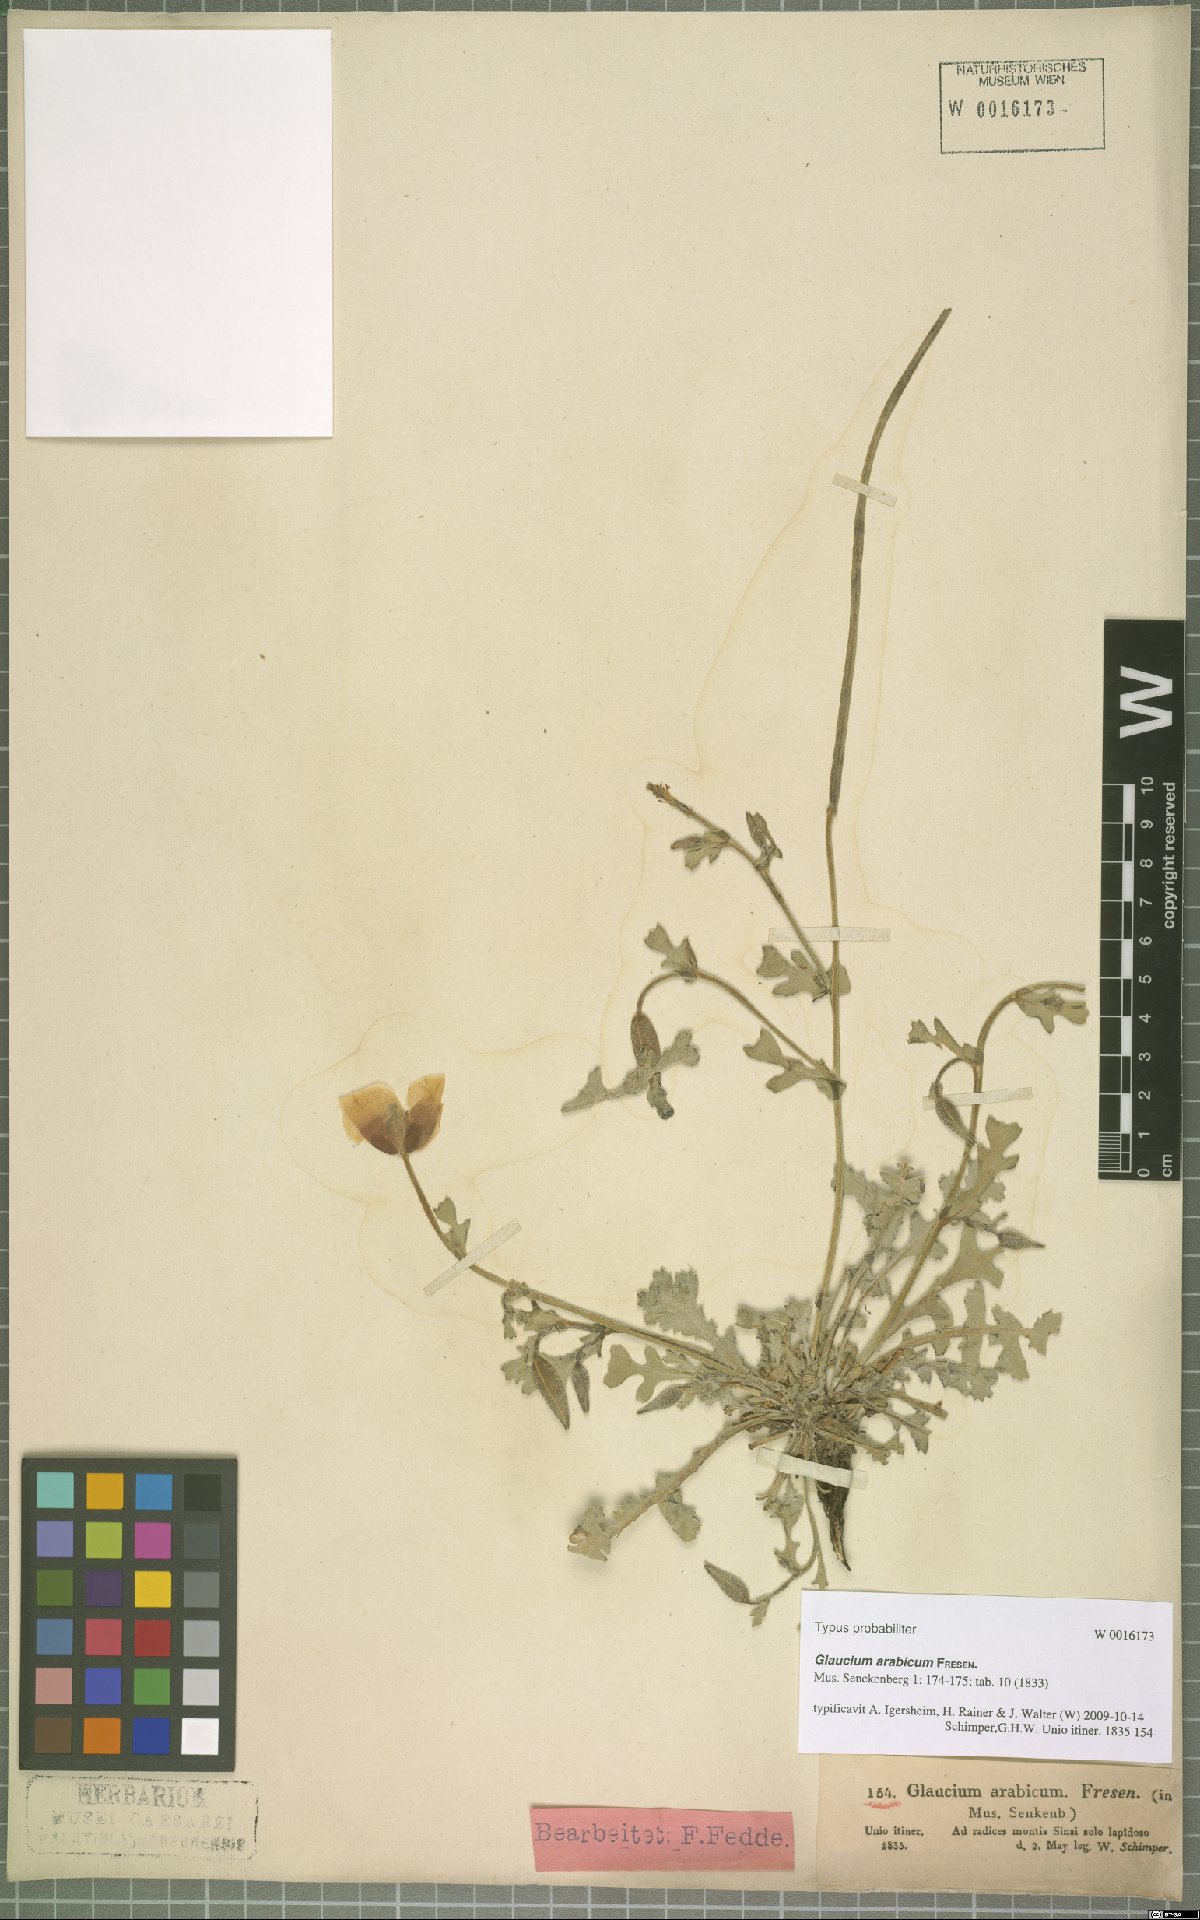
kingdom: Plantae
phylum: Tracheophyta
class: Magnoliopsida
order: Ranunculales
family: Papaveraceae
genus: Glaucium
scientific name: Glaucium arabicum
